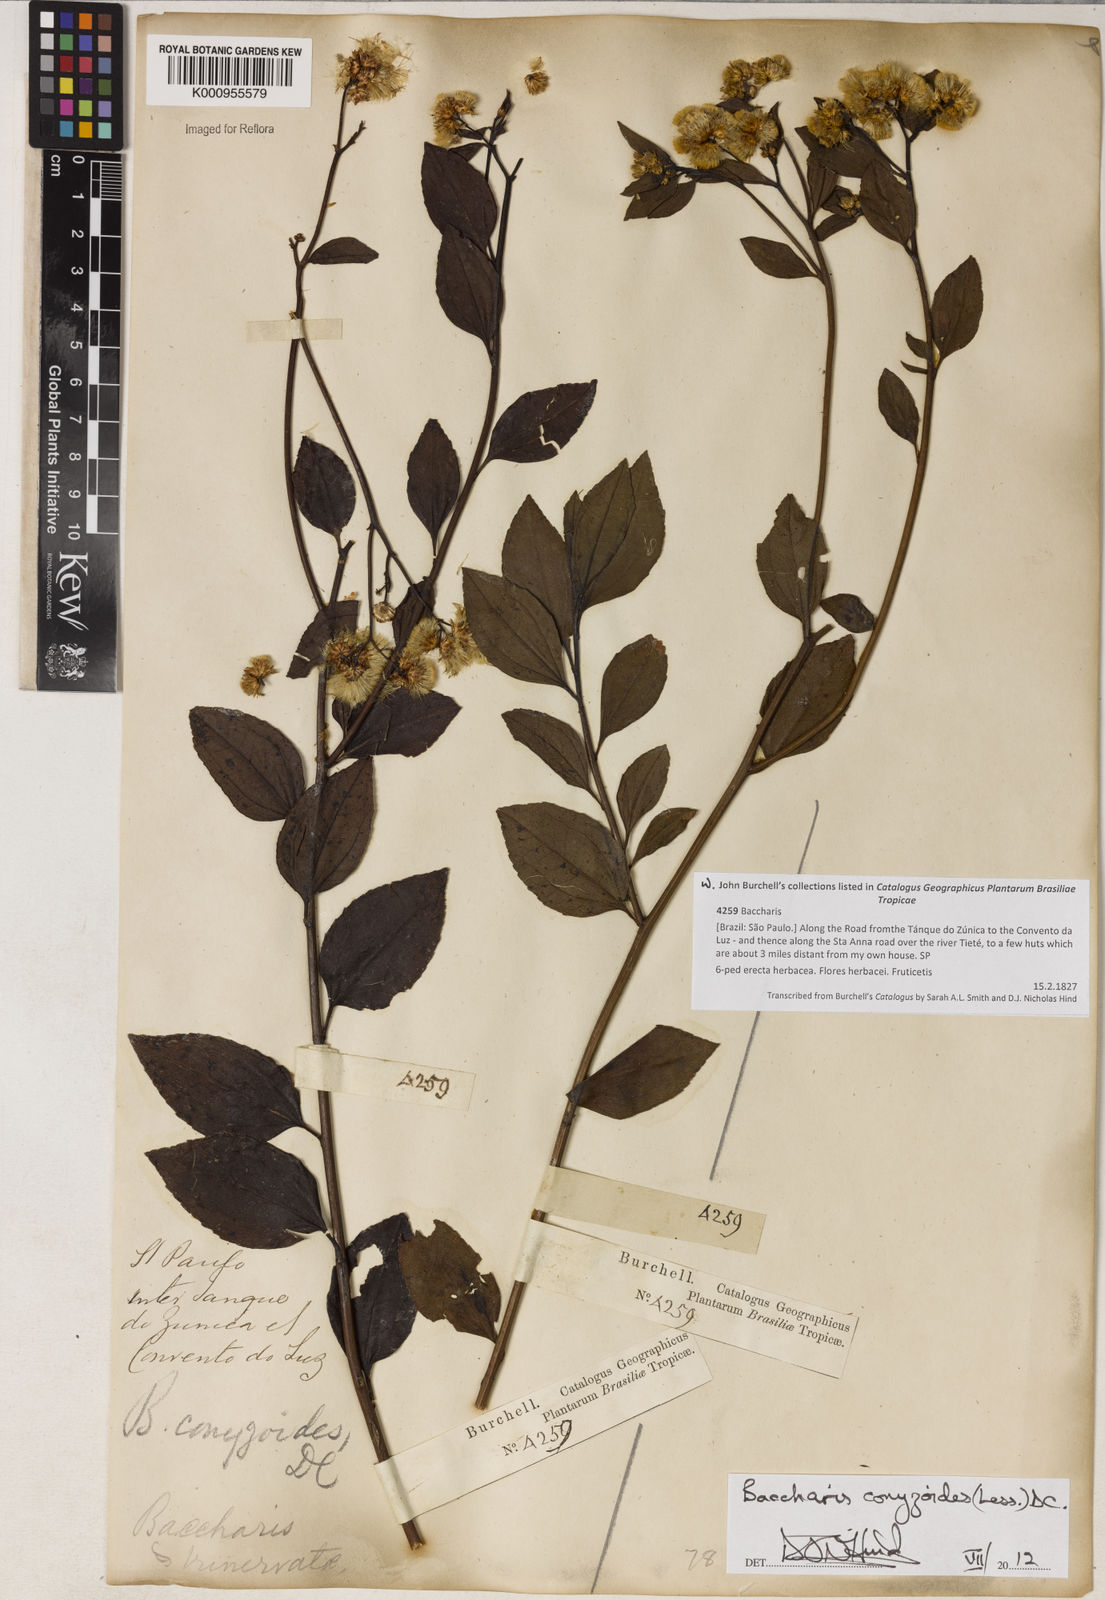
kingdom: Plantae
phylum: Tracheophyta
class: Magnoliopsida
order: Asterales
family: Asteraceae
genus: Baccharis
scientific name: Baccharis conyzoides
